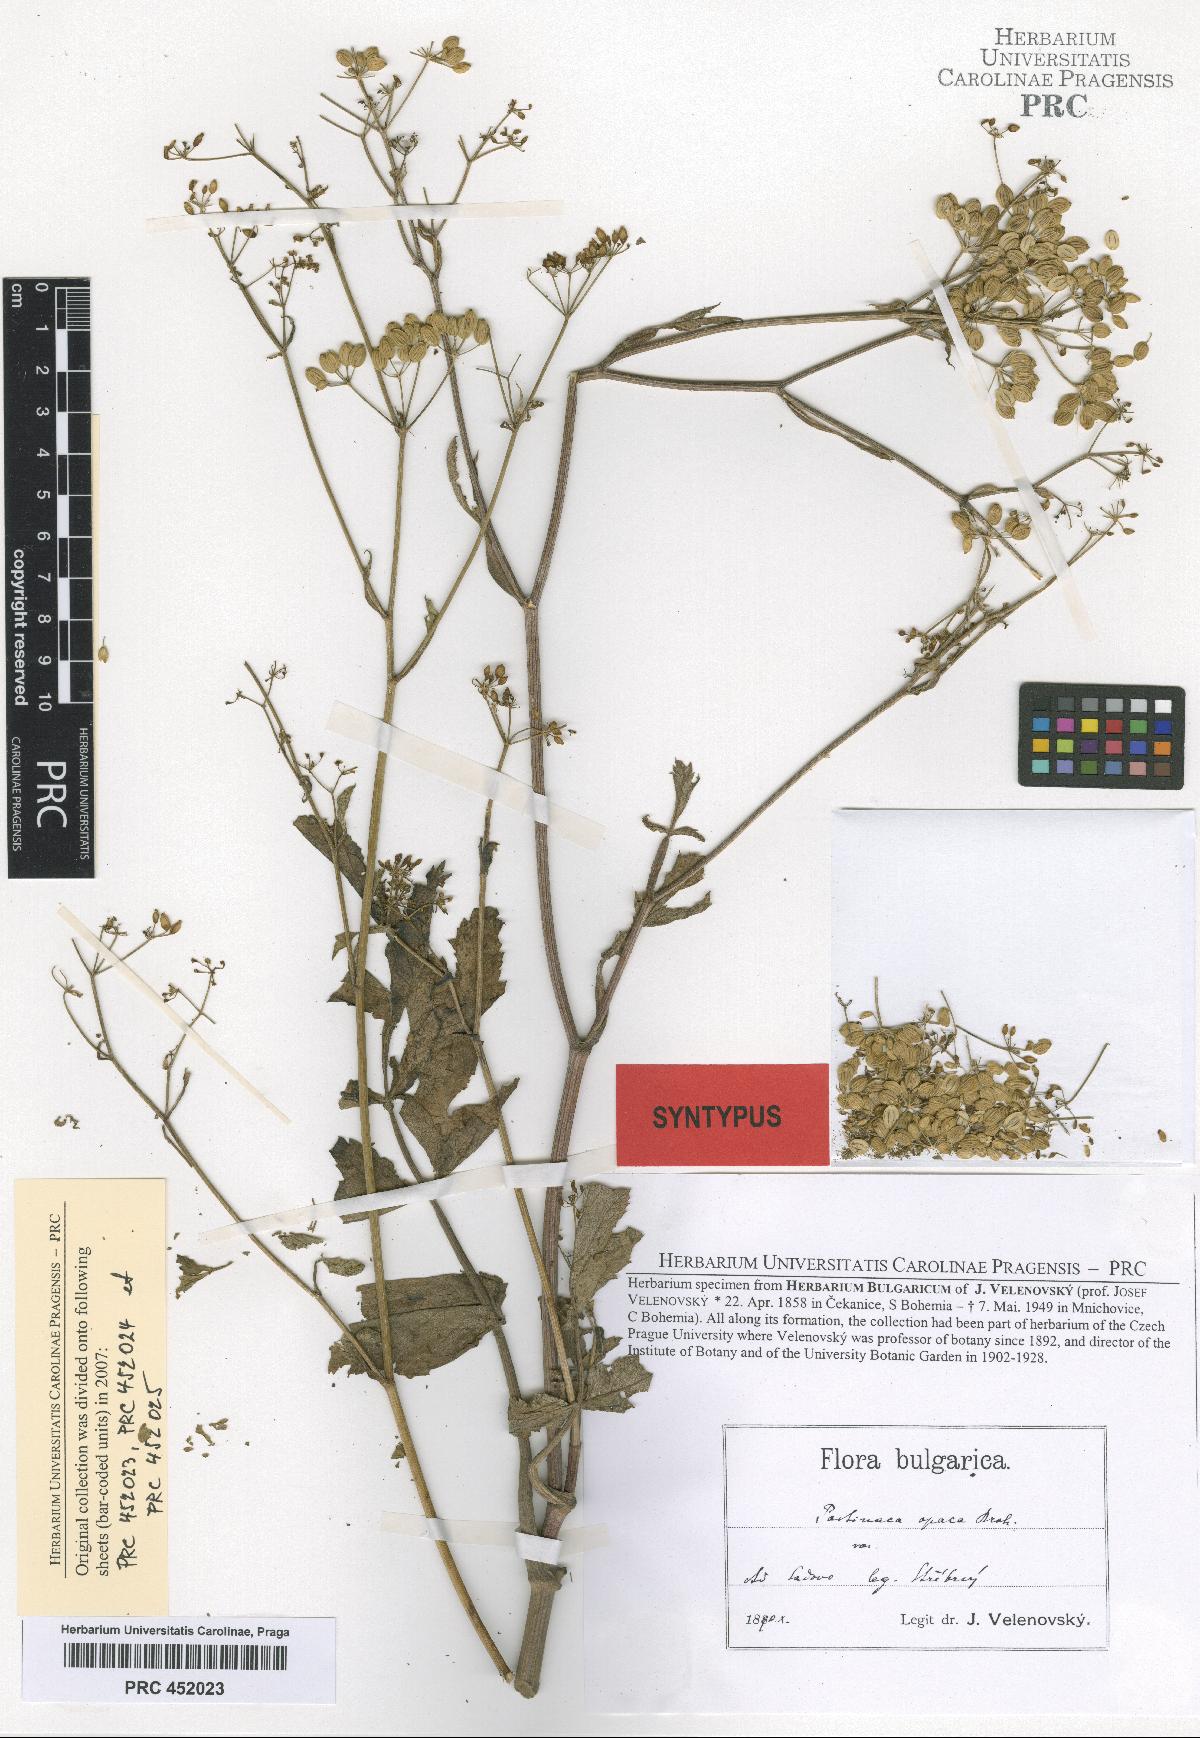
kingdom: Plantae
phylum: Tracheophyta
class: Magnoliopsida
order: Apiales
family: Apiaceae
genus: Pastinaca
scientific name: Pastinaca sativa
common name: Wild parsnip
